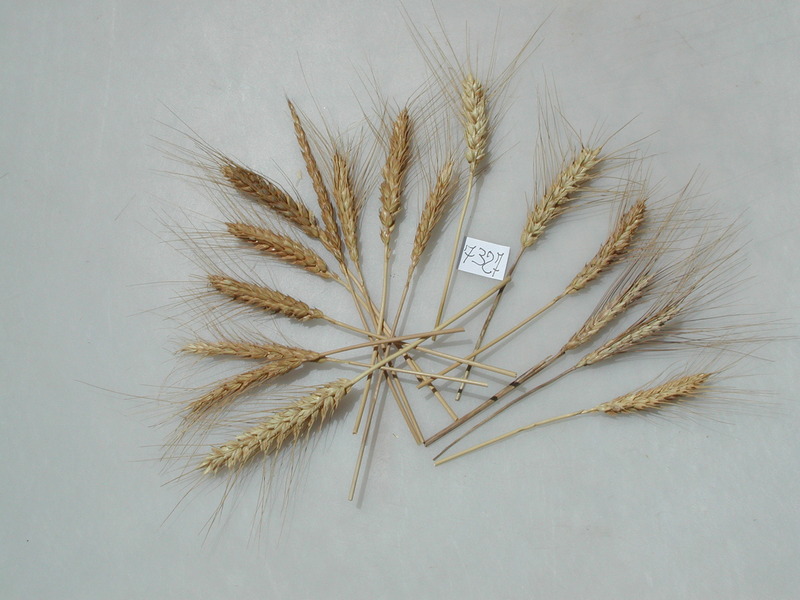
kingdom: Plantae
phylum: Tracheophyta
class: Liliopsida
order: Poales
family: Poaceae
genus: Triticum
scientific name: Triticum aestivum
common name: Wheat
